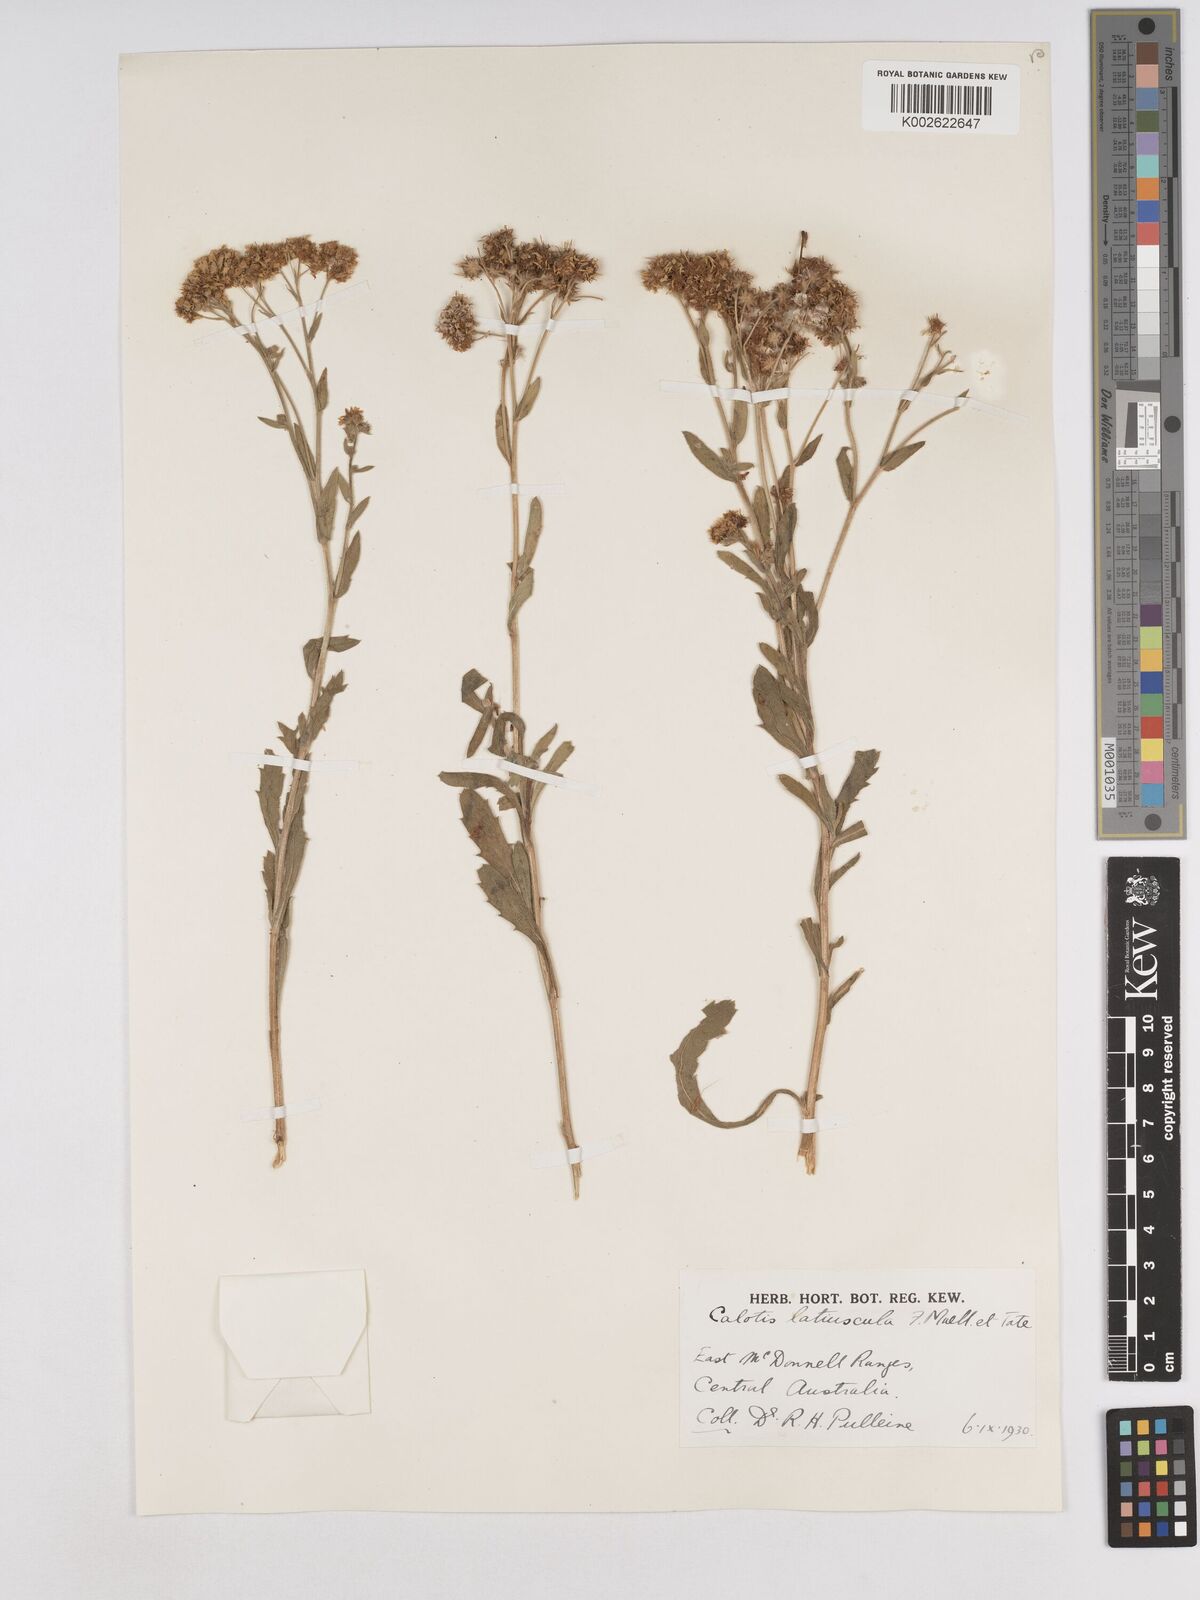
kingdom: Plantae
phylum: Tracheophyta
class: Magnoliopsida
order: Asterales
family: Asteraceae
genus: Calotis
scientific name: Calotis latiuscula
